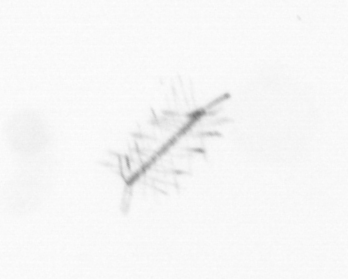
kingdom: Chromista
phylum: Ochrophyta
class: Bacillariophyceae
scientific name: Bacillariophyceae
